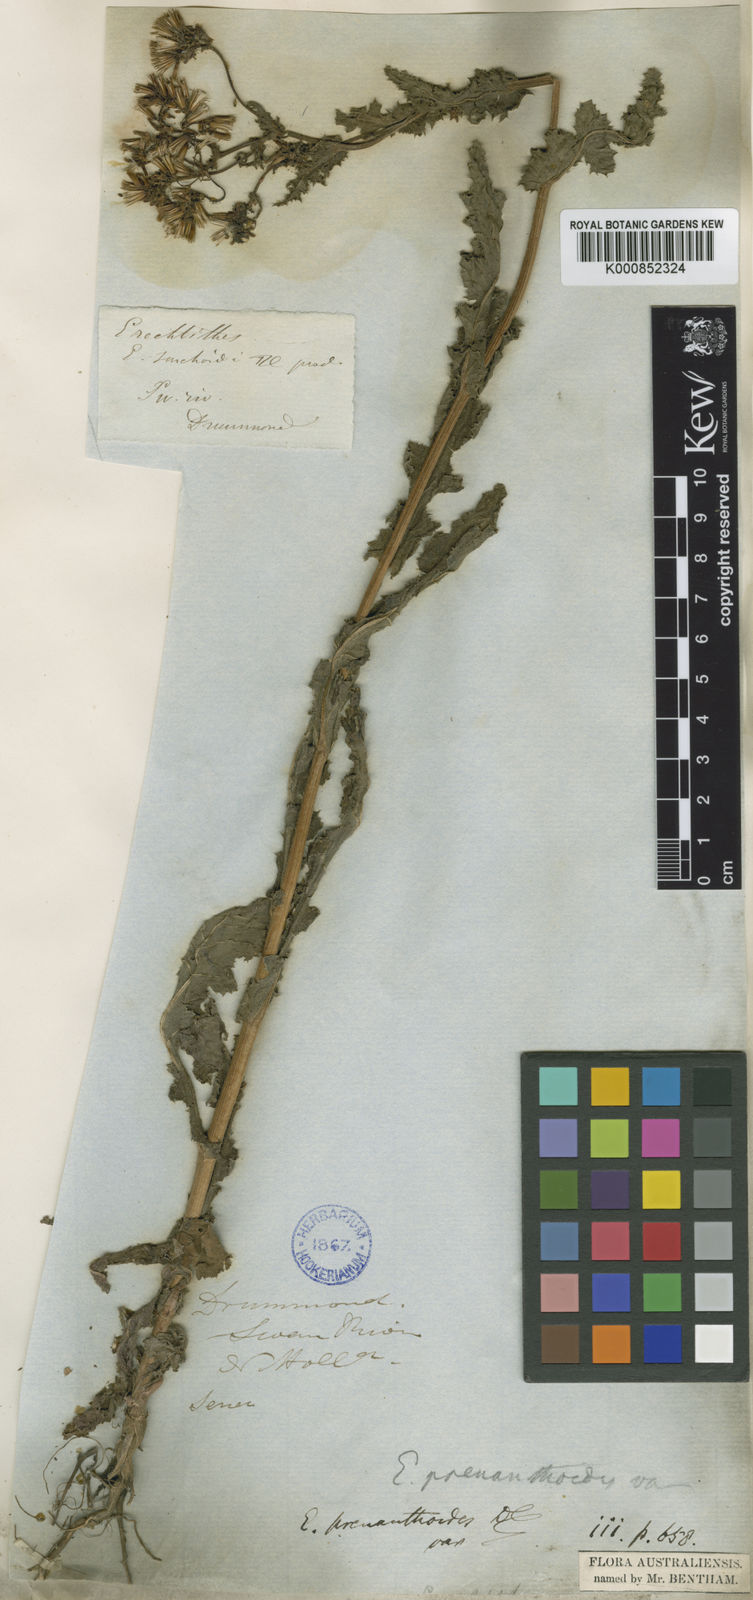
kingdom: Plantae
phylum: Tracheophyta
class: Magnoliopsida
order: Asterales
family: Asteraceae
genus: Senecio
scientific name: Senecio minimus
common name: Toothed fireweed
